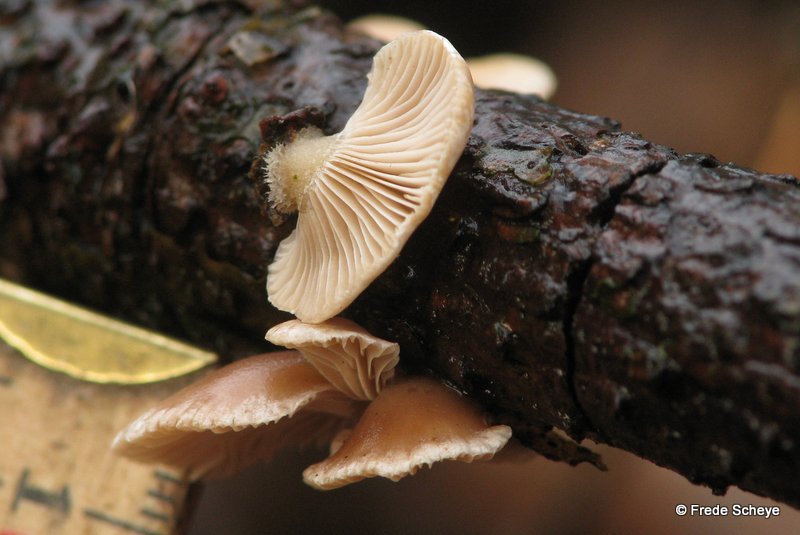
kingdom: Fungi
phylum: Basidiomycota
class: Agaricomycetes
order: Agaricales
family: Mycenaceae
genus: Panellus
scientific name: Panellus mitis
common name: mild epaulethat
